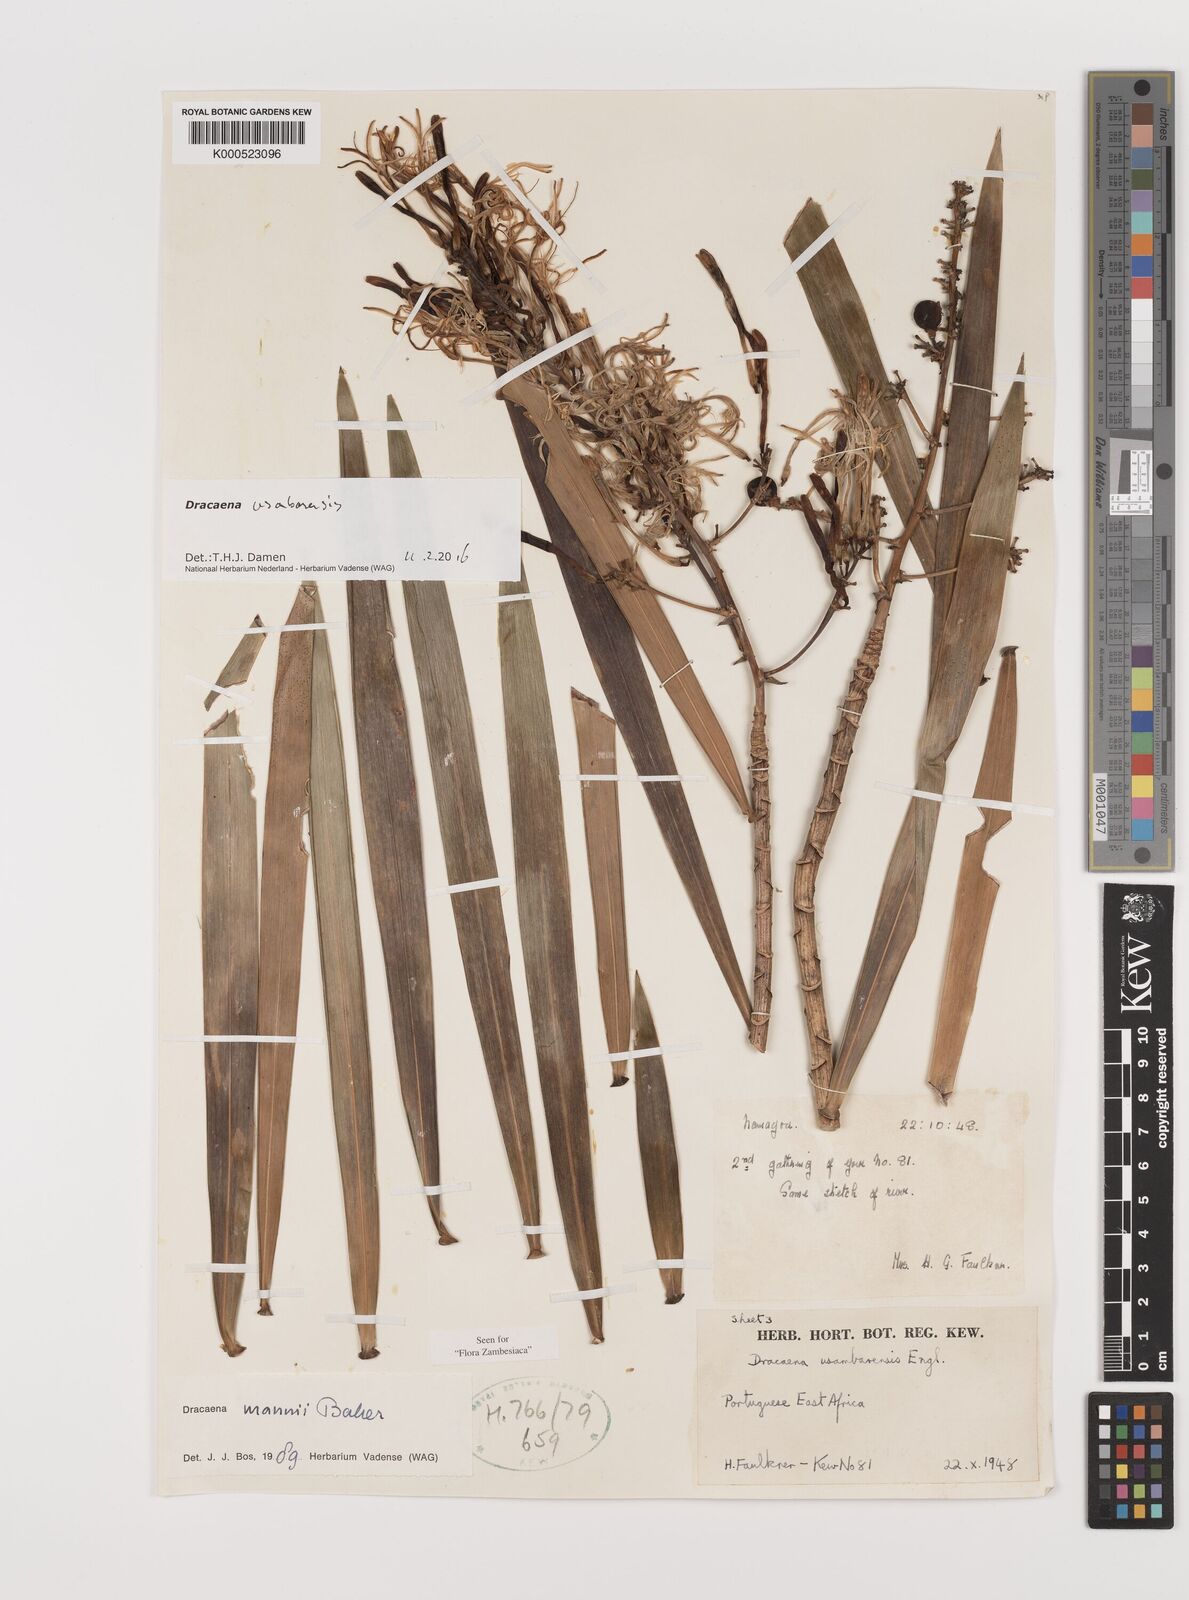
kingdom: Plantae
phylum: Tracheophyta
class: Liliopsida
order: Asparagales
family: Asparagaceae
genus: Dracaena
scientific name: Dracaena usambarensis
